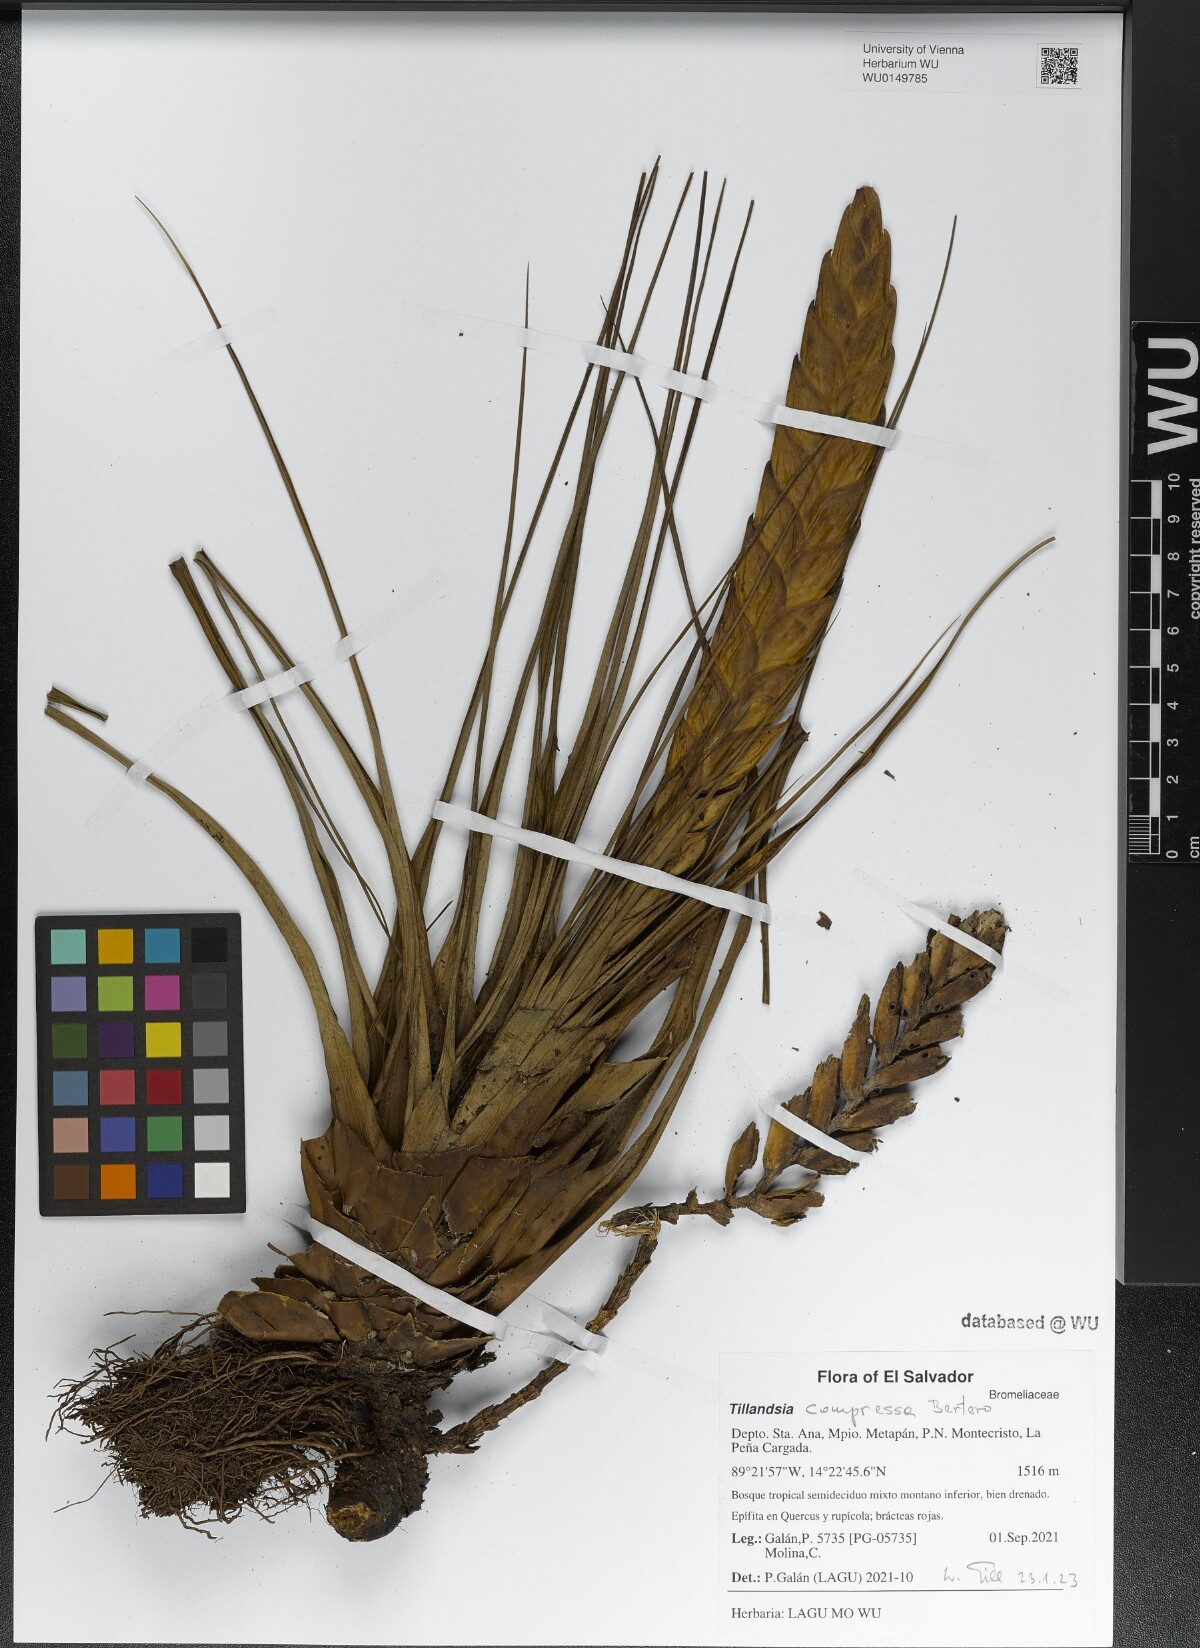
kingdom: Plantae
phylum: Tracheophyta
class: Liliopsida
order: Poales
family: Bromeliaceae
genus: Tillandsia
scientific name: Tillandsia compressa
